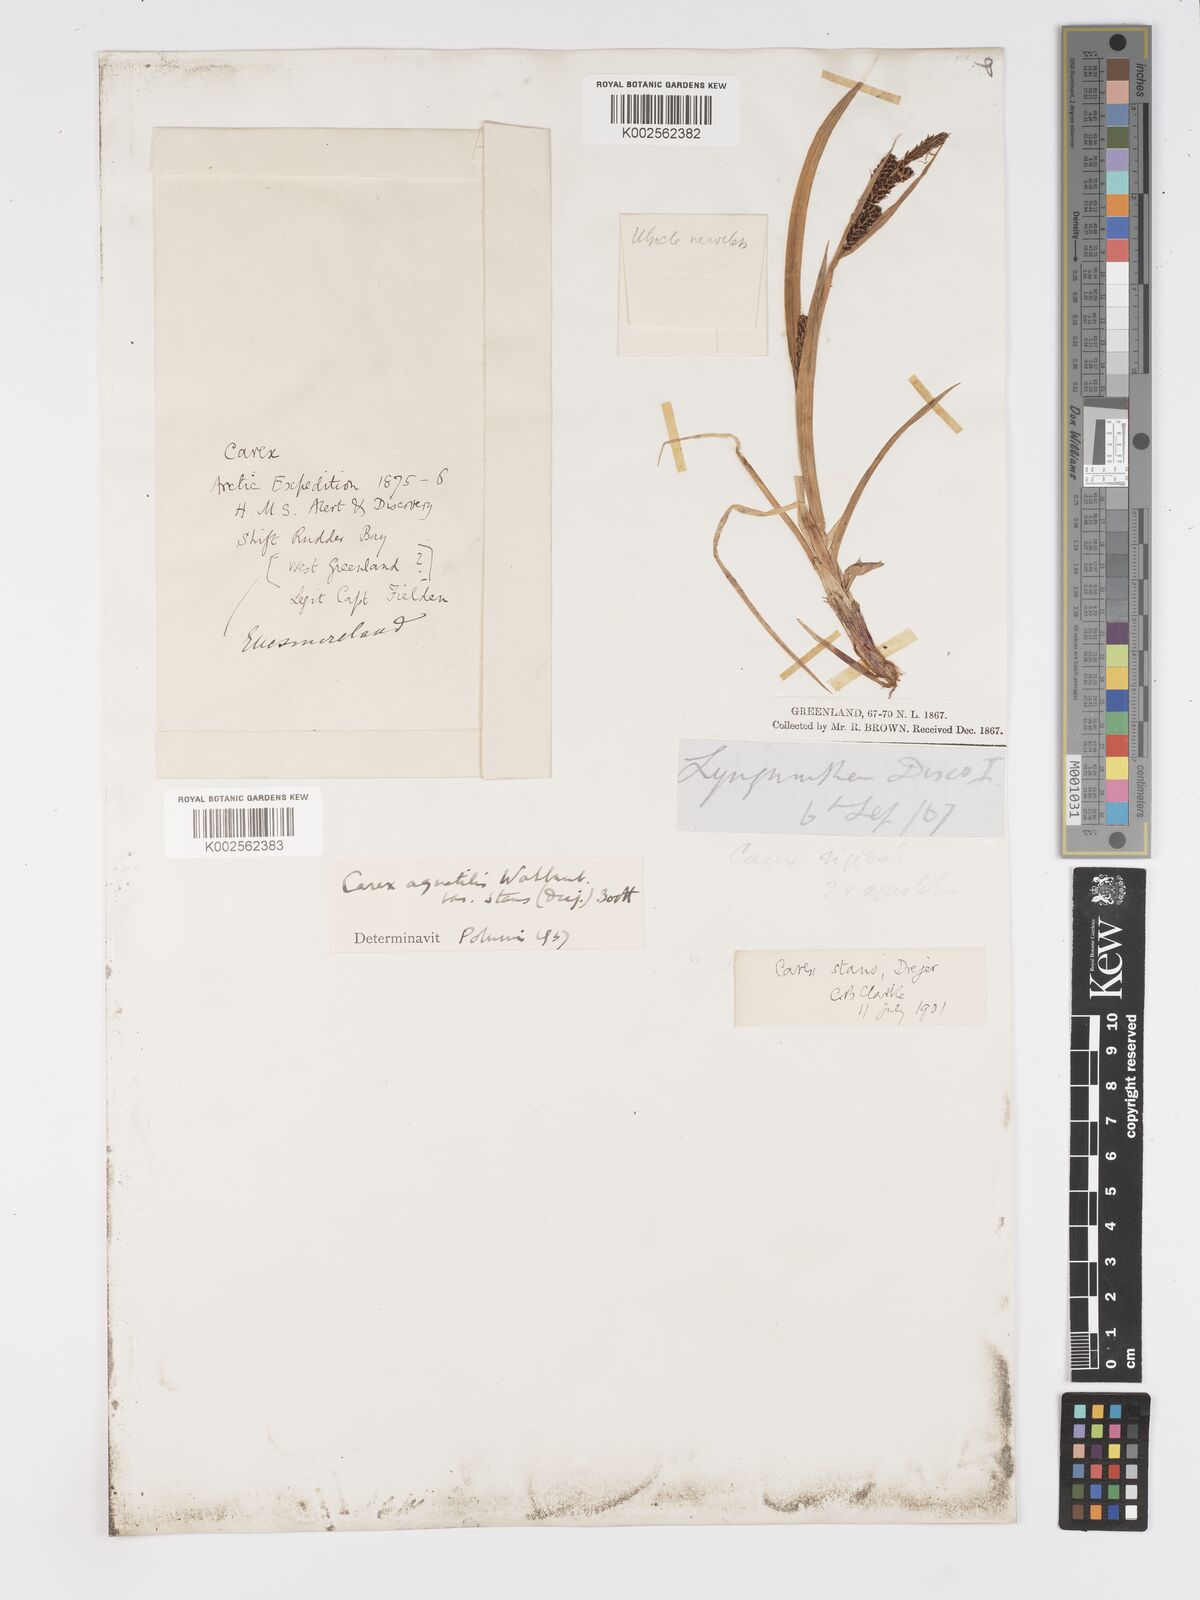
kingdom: Plantae
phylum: Tracheophyta
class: Liliopsida
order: Poales
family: Cyperaceae
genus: Carex
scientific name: Carex aquatilis
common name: Water sedge
